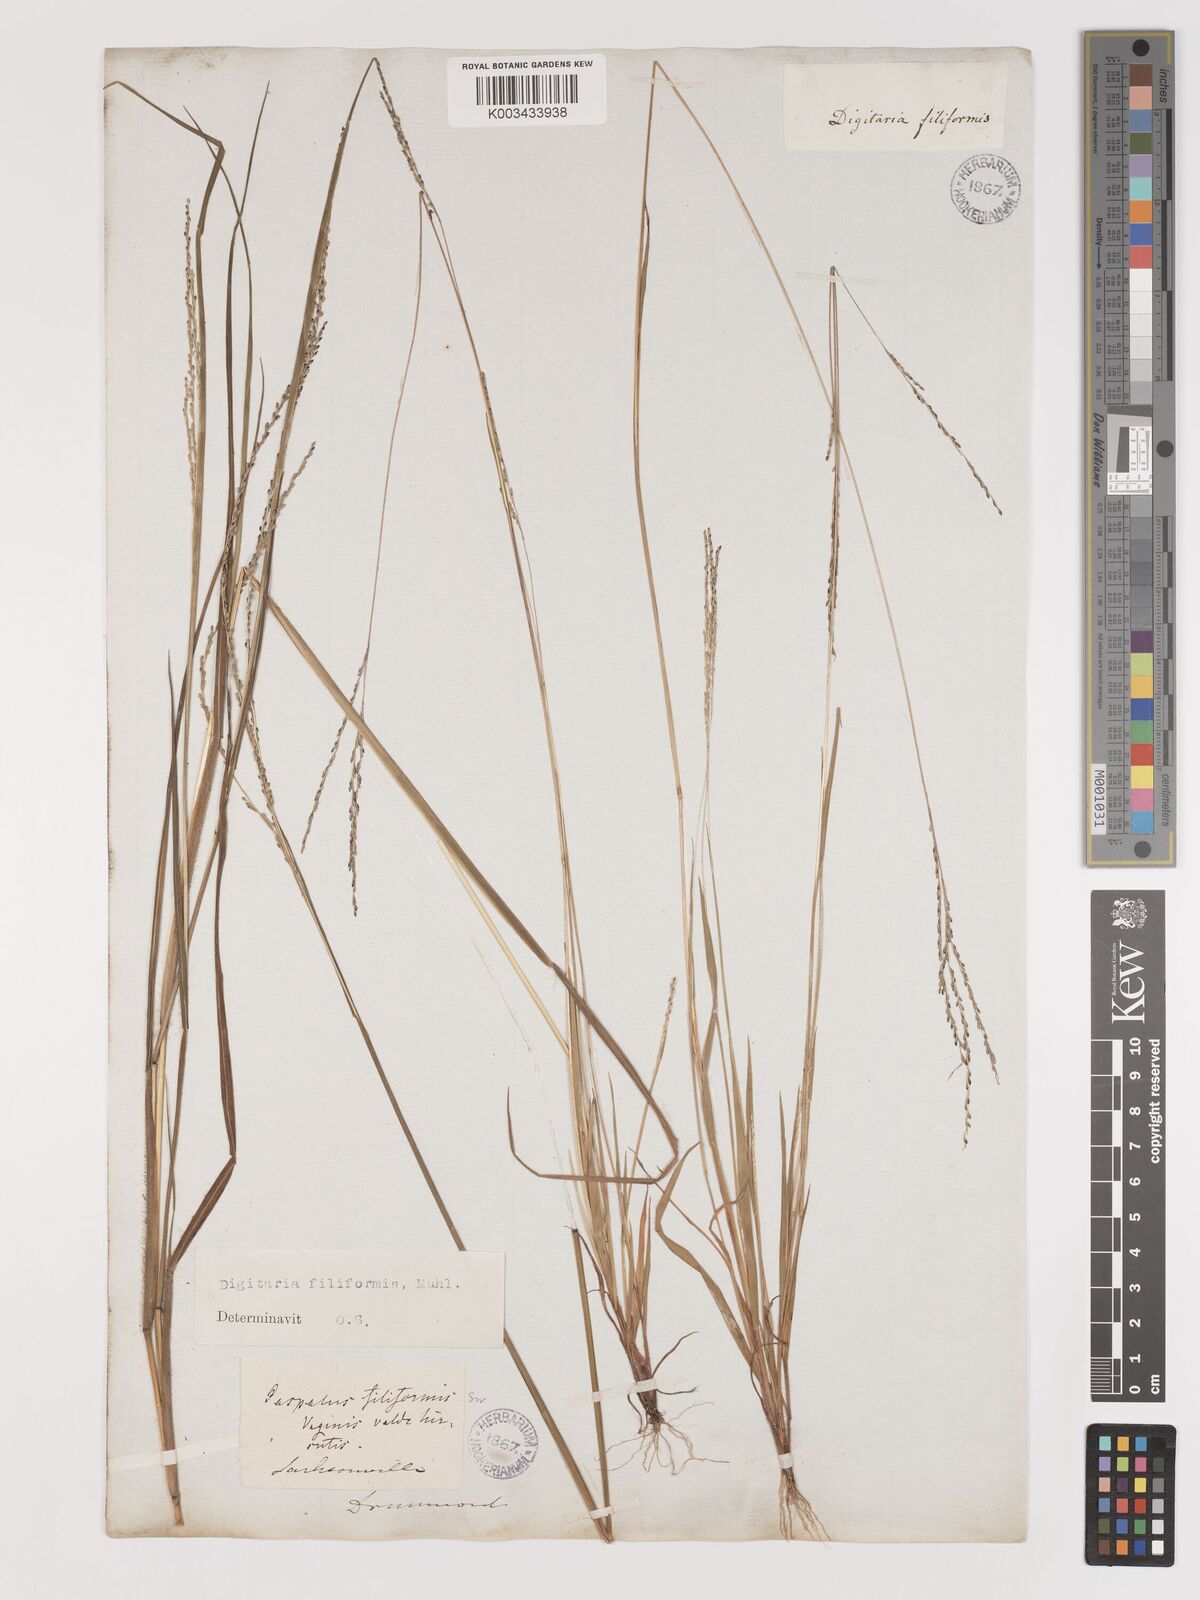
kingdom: Plantae
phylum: Tracheophyta
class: Liliopsida
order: Poales
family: Poaceae
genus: Digitaria
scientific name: Digitaria filiformis
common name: Slender crabgrass
